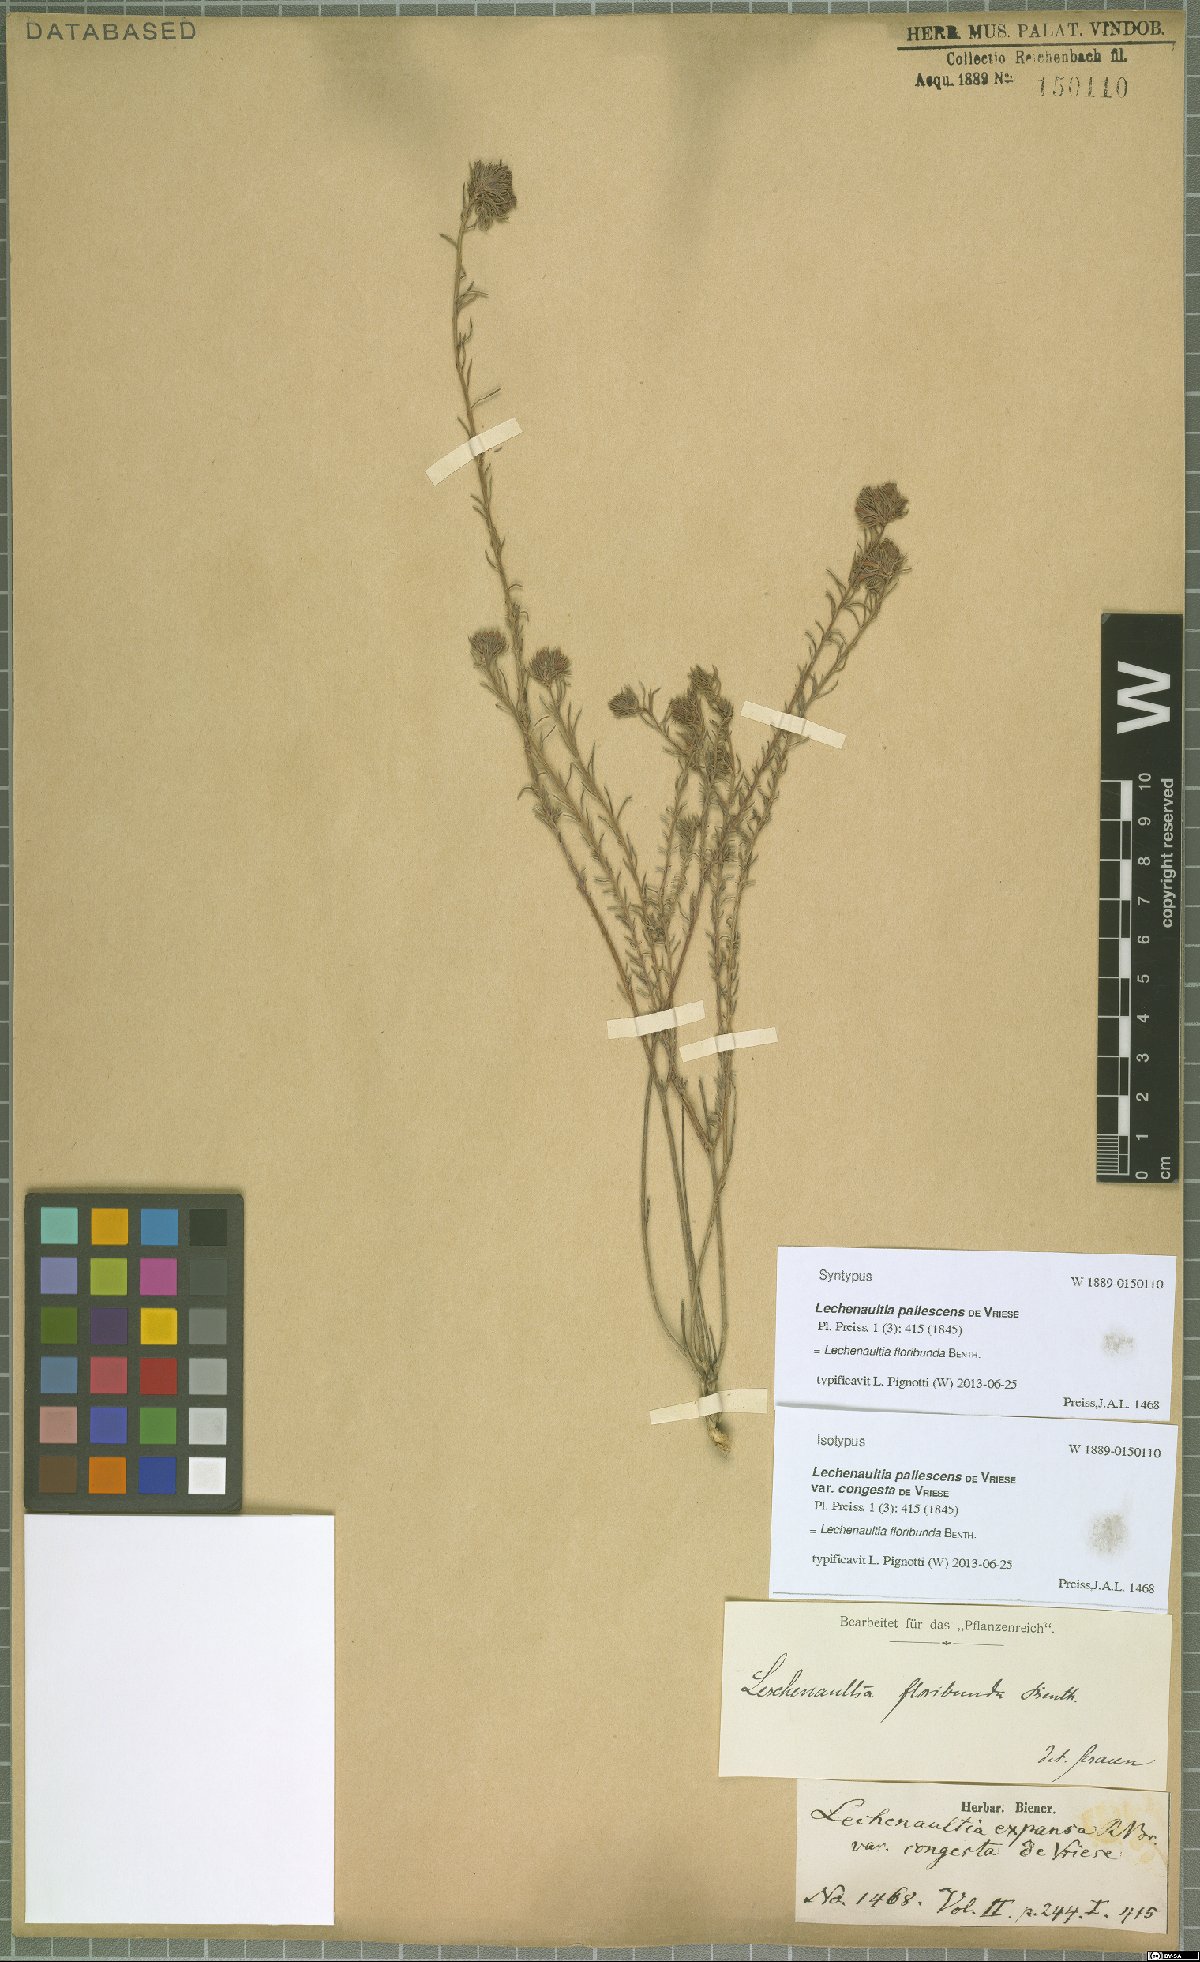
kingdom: Plantae
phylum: Tracheophyta
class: Magnoliopsida
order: Asterales
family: Goodeniaceae
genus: Lechenaultia
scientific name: Lechenaultia floribunda
